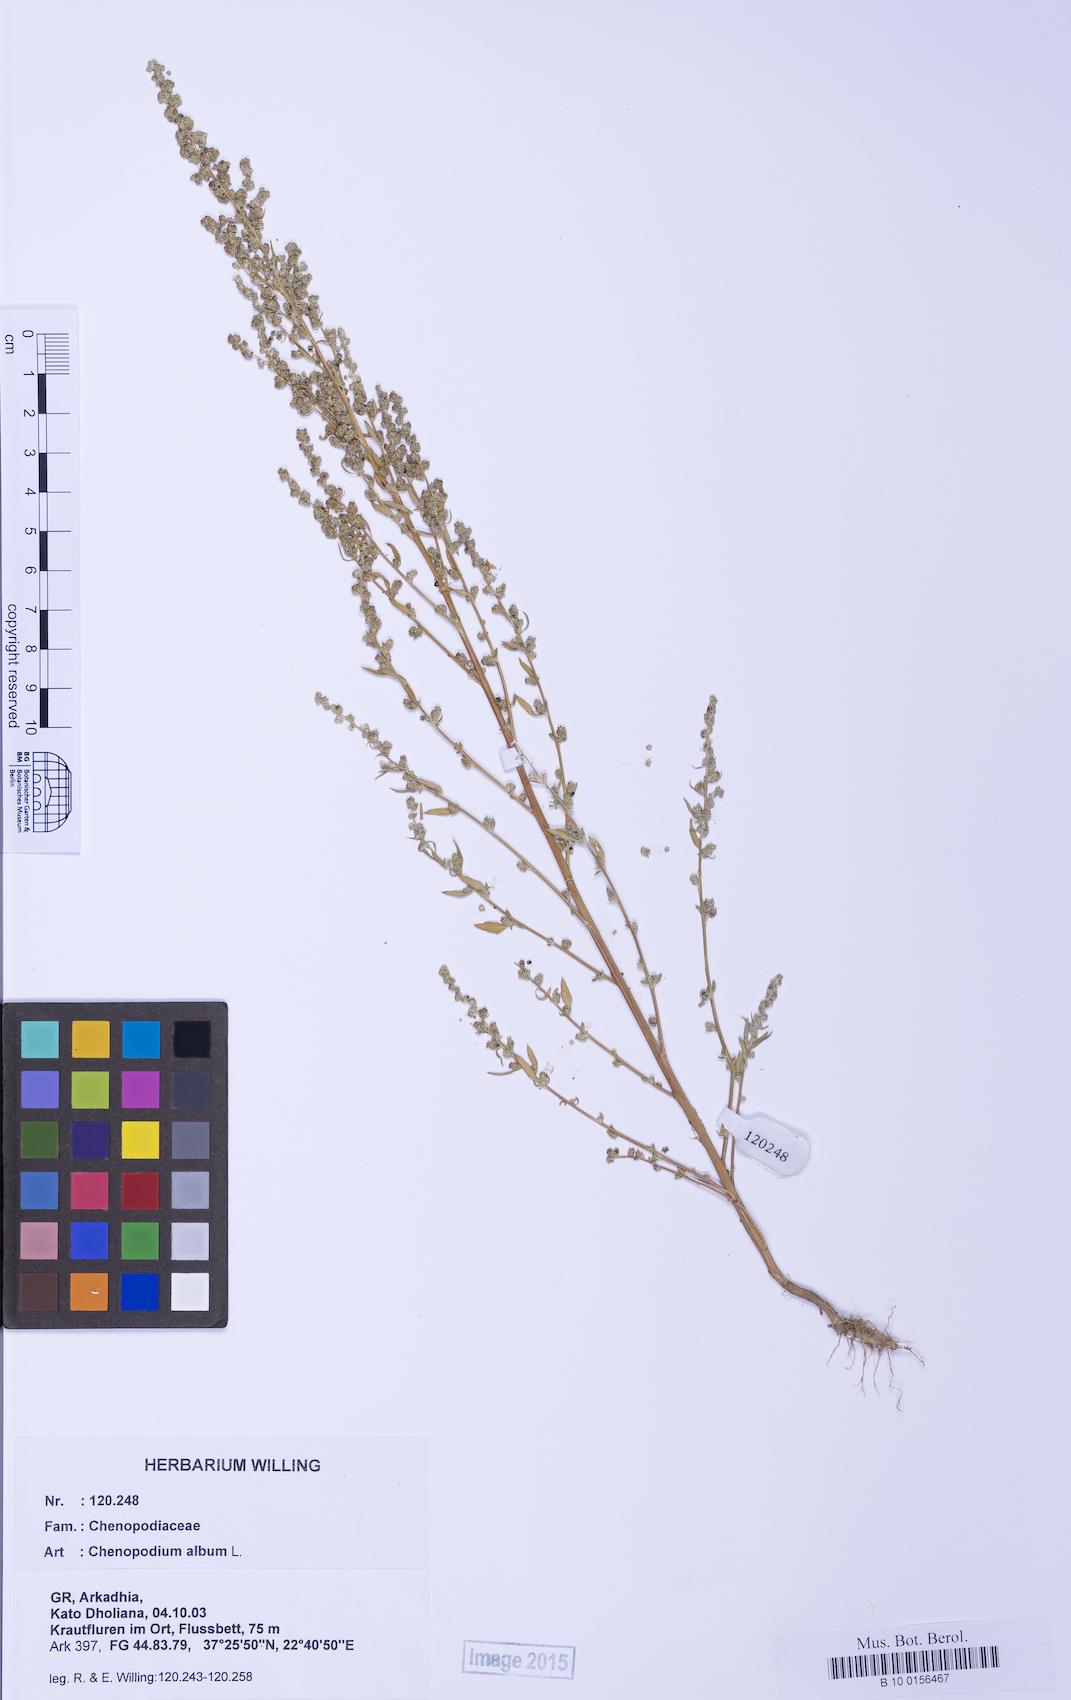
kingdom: Plantae
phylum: Tracheophyta
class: Magnoliopsida
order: Caryophyllales
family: Amaranthaceae
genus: Chenopodium
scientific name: Chenopodium album
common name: Fat-hen
